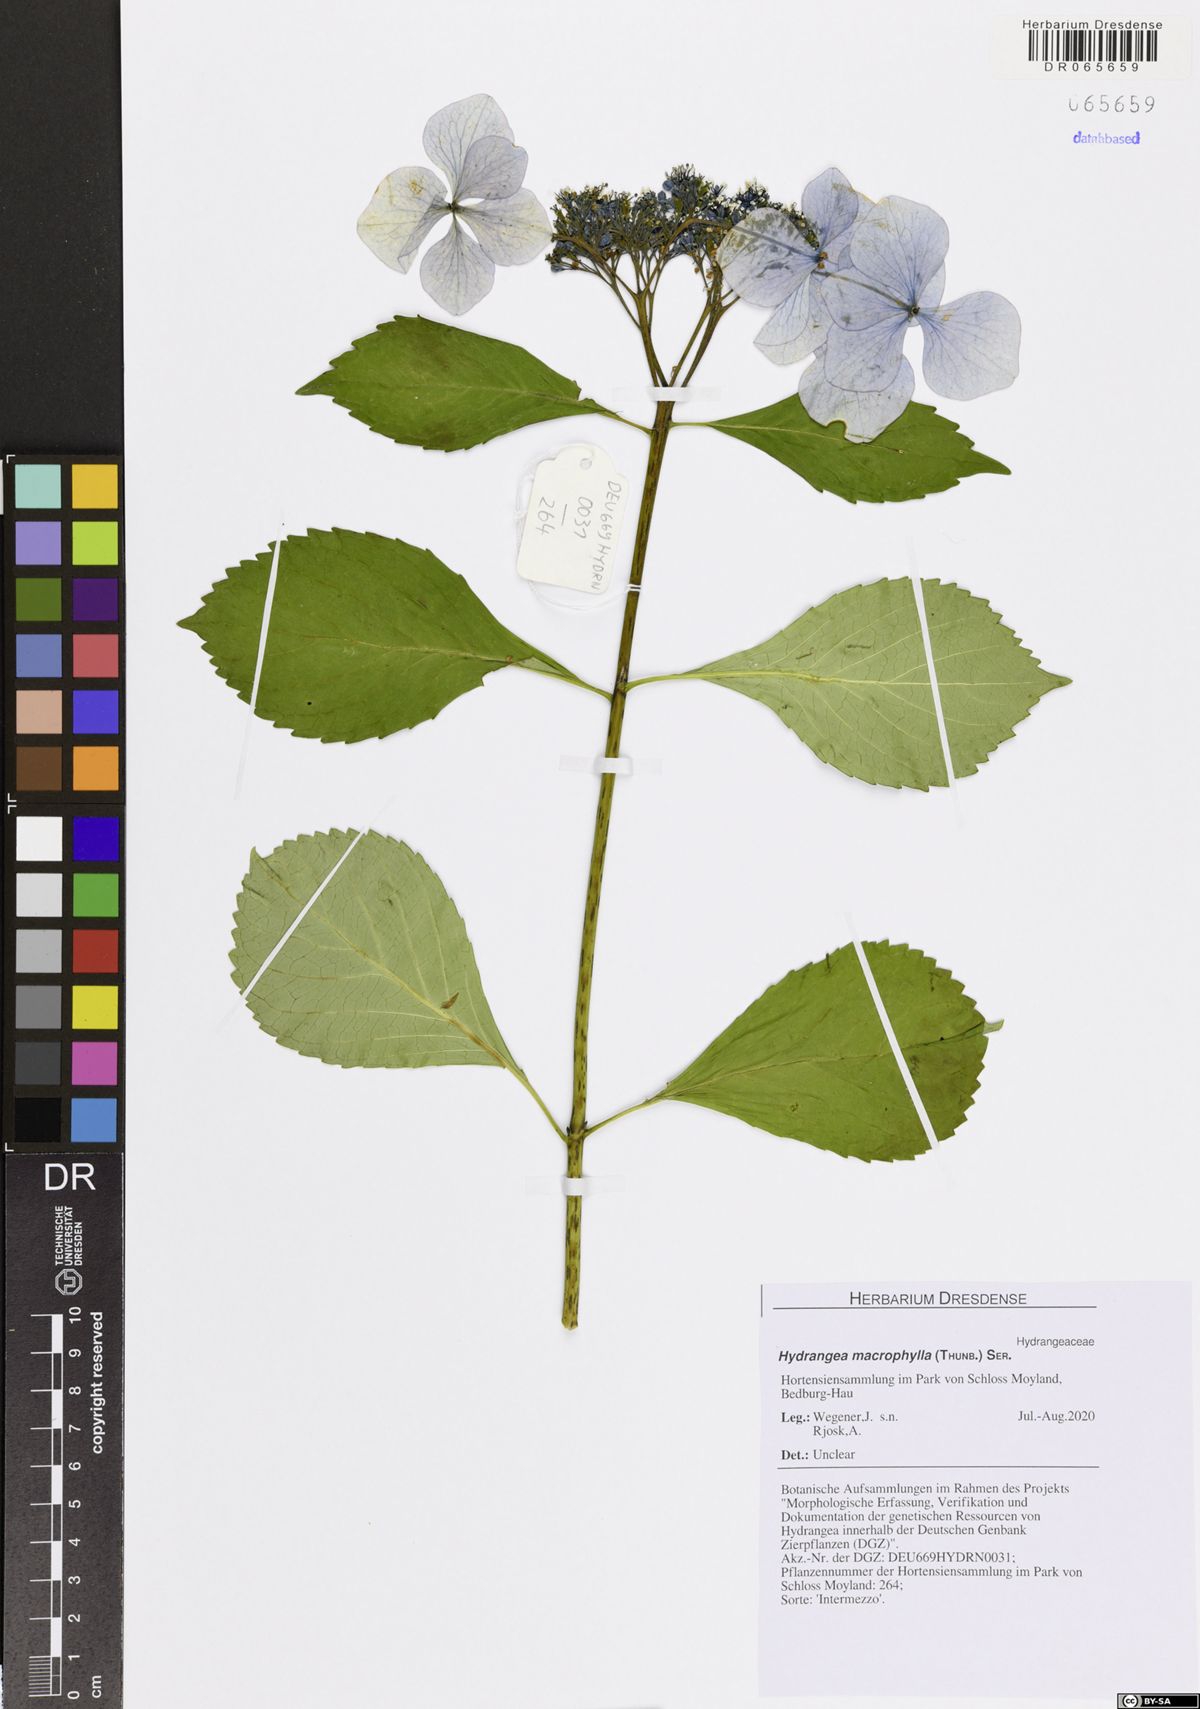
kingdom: Plantae
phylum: Tracheophyta
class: Magnoliopsida
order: Cornales
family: Hydrangeaceae
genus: Hydrangea
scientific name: Hydrangea macrophylla
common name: Hydrangea
